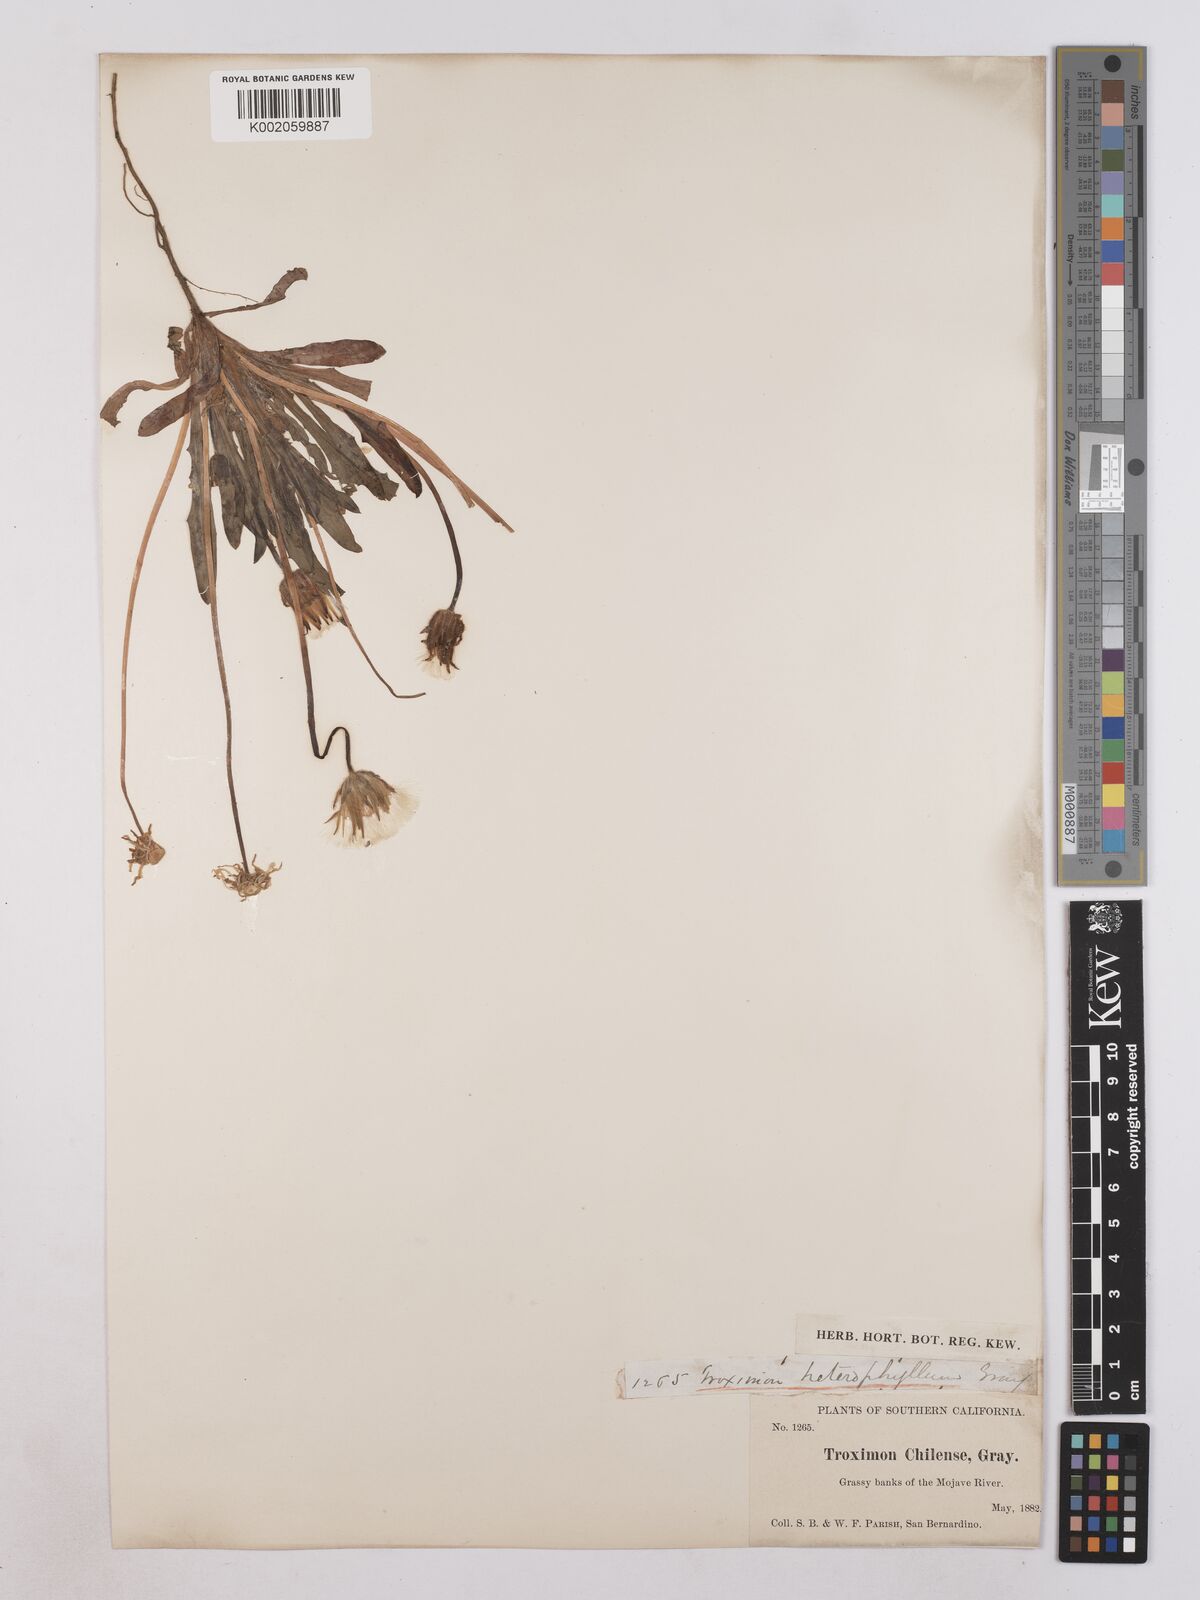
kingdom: Plantae
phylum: Tracheophyta
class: Magnoliopsida
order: Asterales
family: Asteraceae
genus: Agoseris
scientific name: Agoseris heterophylla
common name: Annual agoseris
